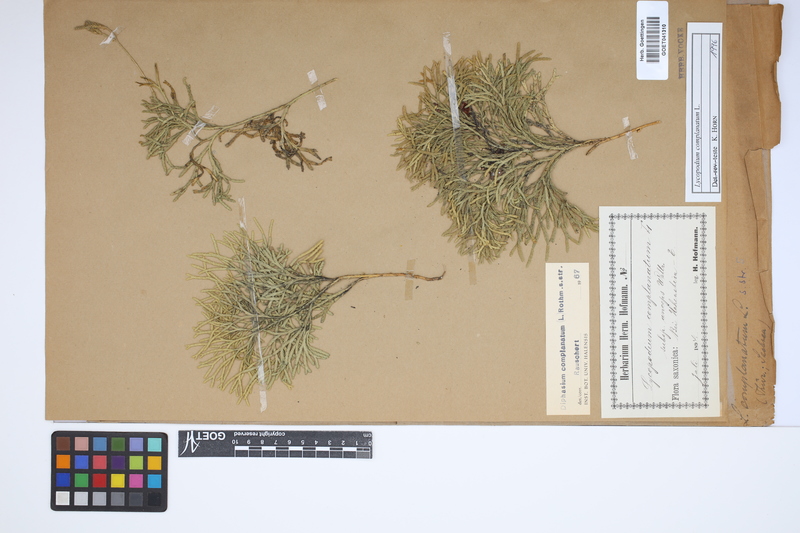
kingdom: Plantae
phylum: Tracheophyta
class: Lycopodiopsida
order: Lycopodiales
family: Lycopodiaceae
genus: Diphasiastrum
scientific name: Diphasiastrum complanatum
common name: Northern running-pine
